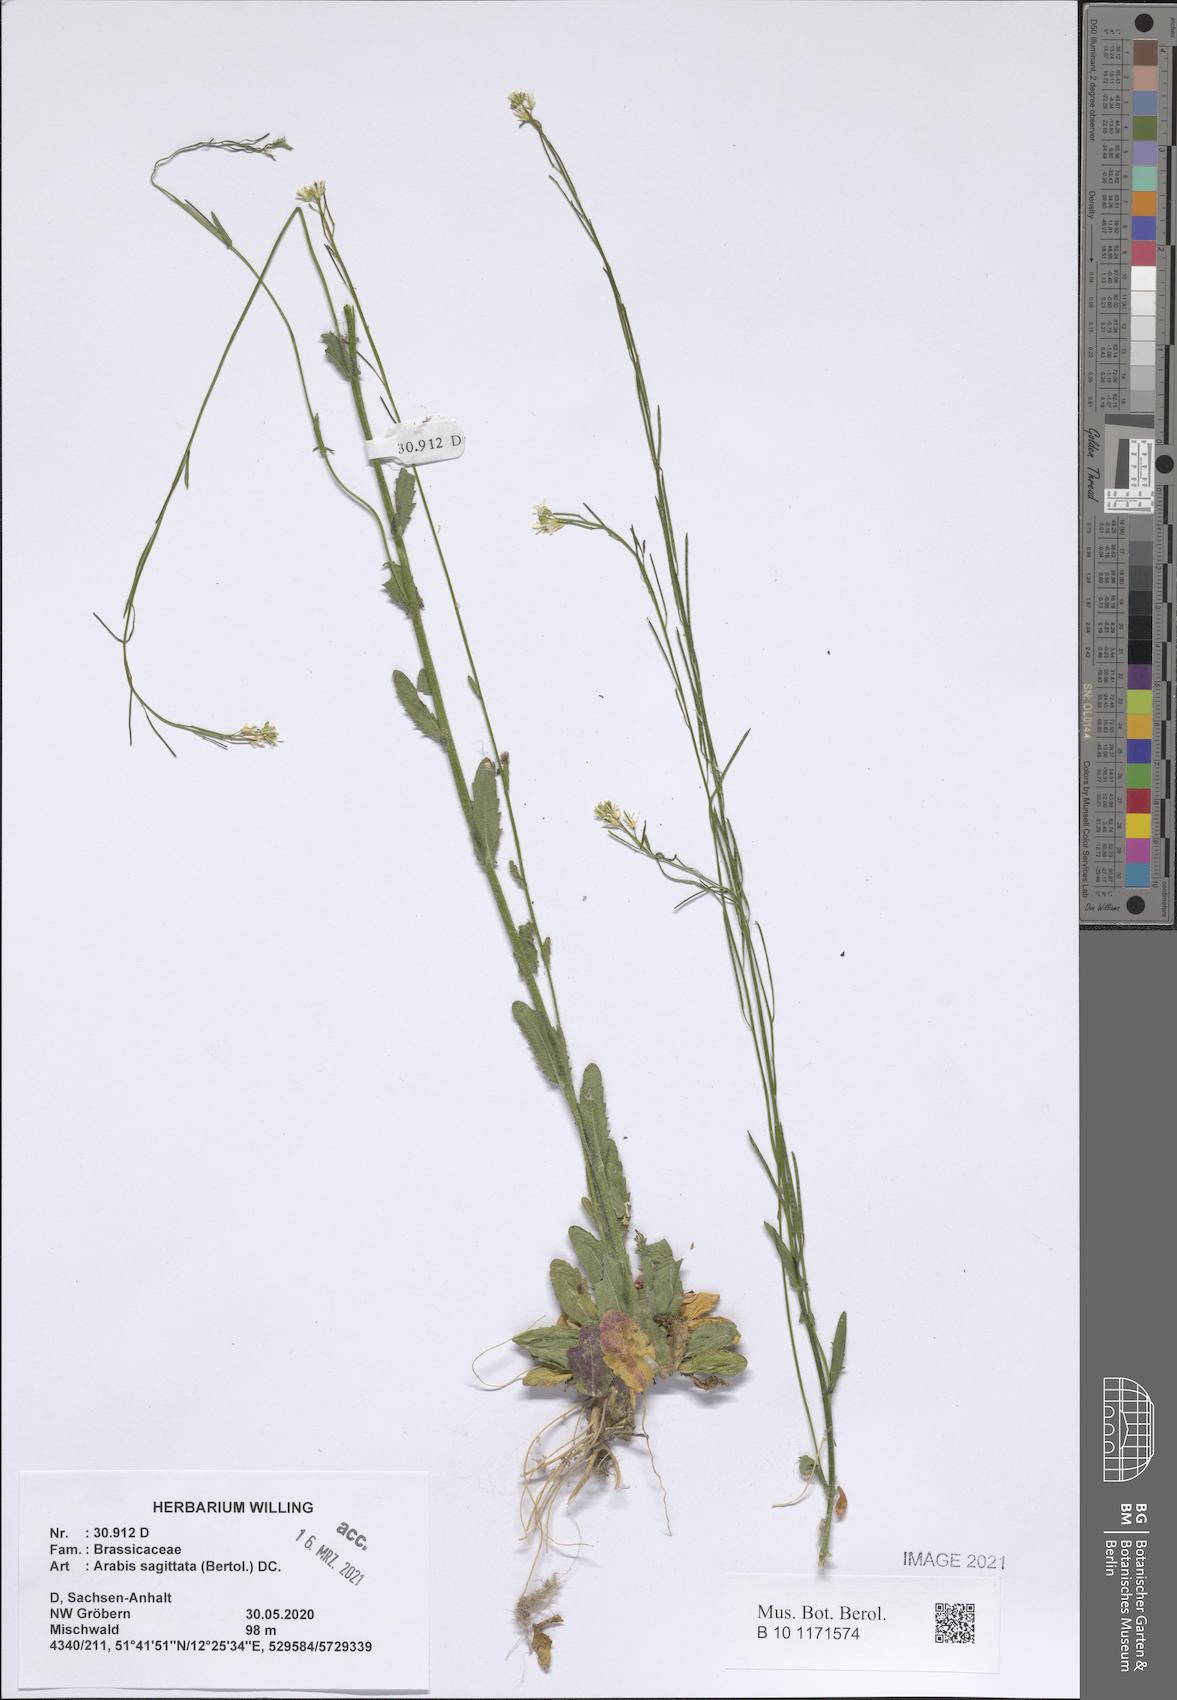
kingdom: Plantae
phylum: Tracheophyta
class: Magnoliopsida
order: Brassicales
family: Brassicaceae
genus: Arabis
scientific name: Arabis sagittata
